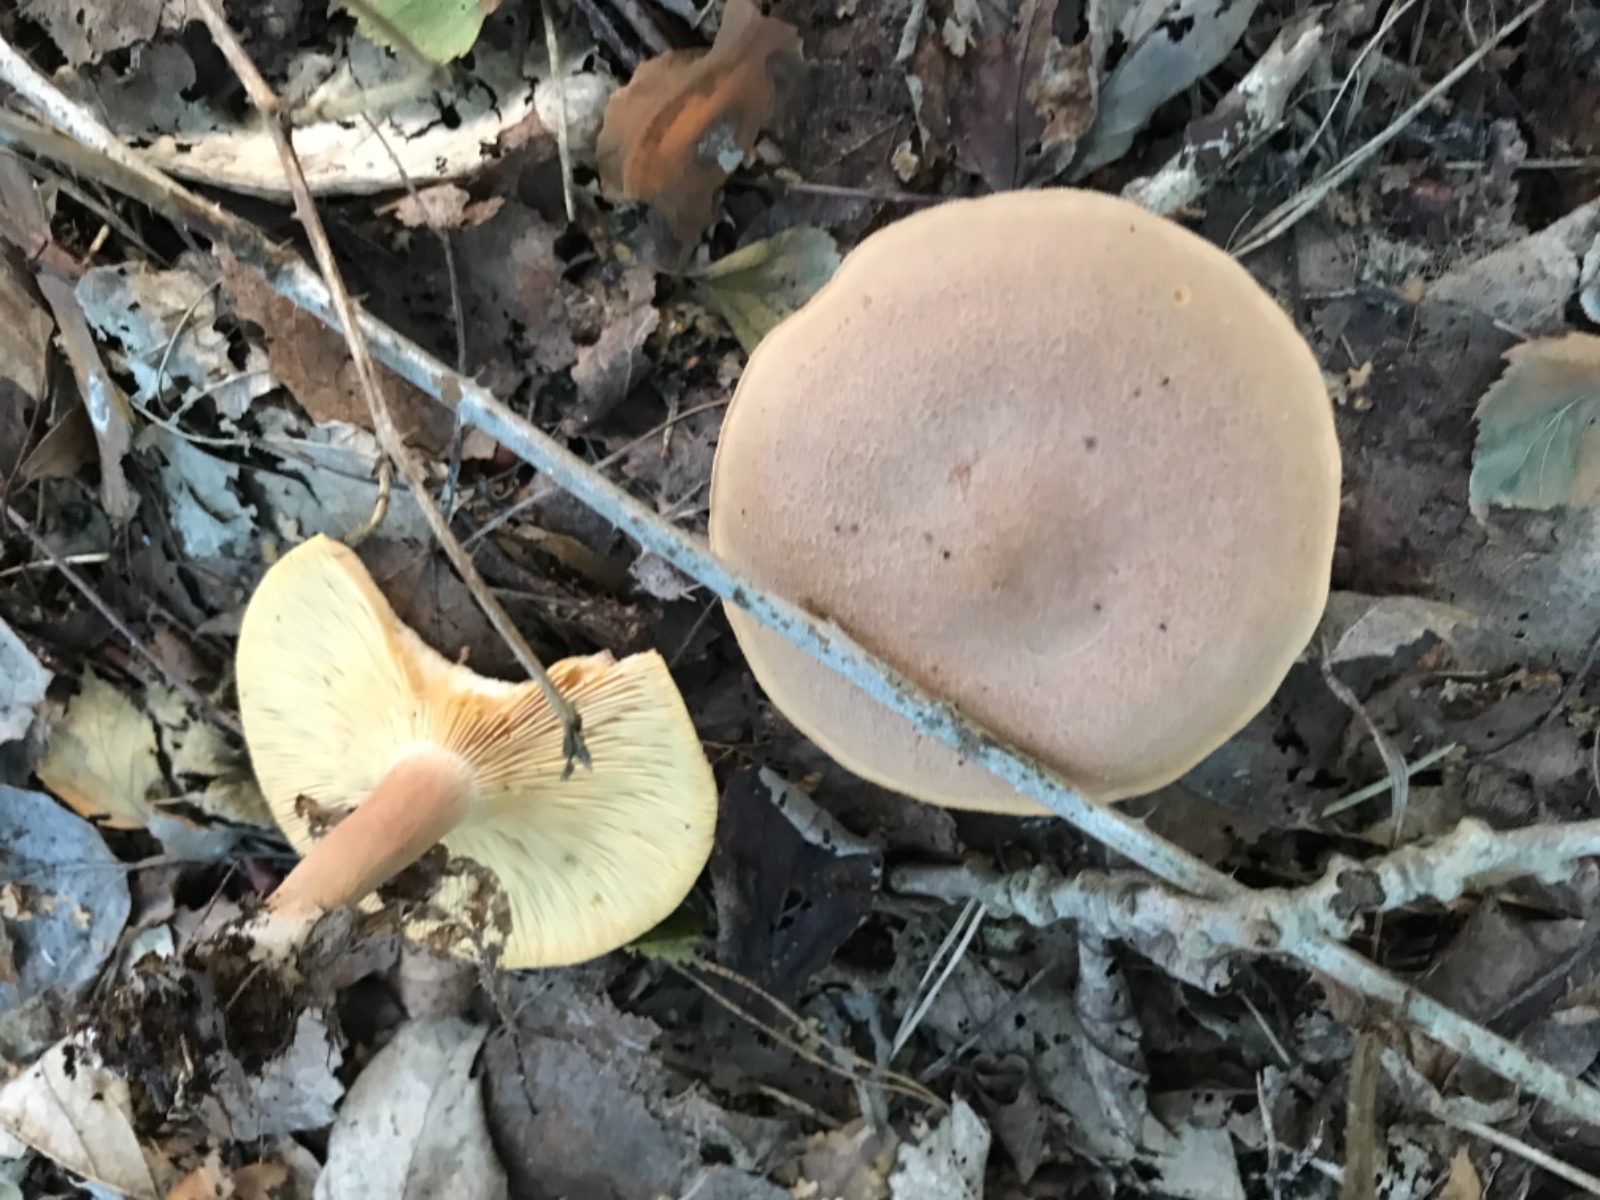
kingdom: Fungi
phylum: Basidiomycota
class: Agaricomycetes
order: Russulales
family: Russulaceae
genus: Lactarius
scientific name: Lactarius helvus
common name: mose-mælkehat
